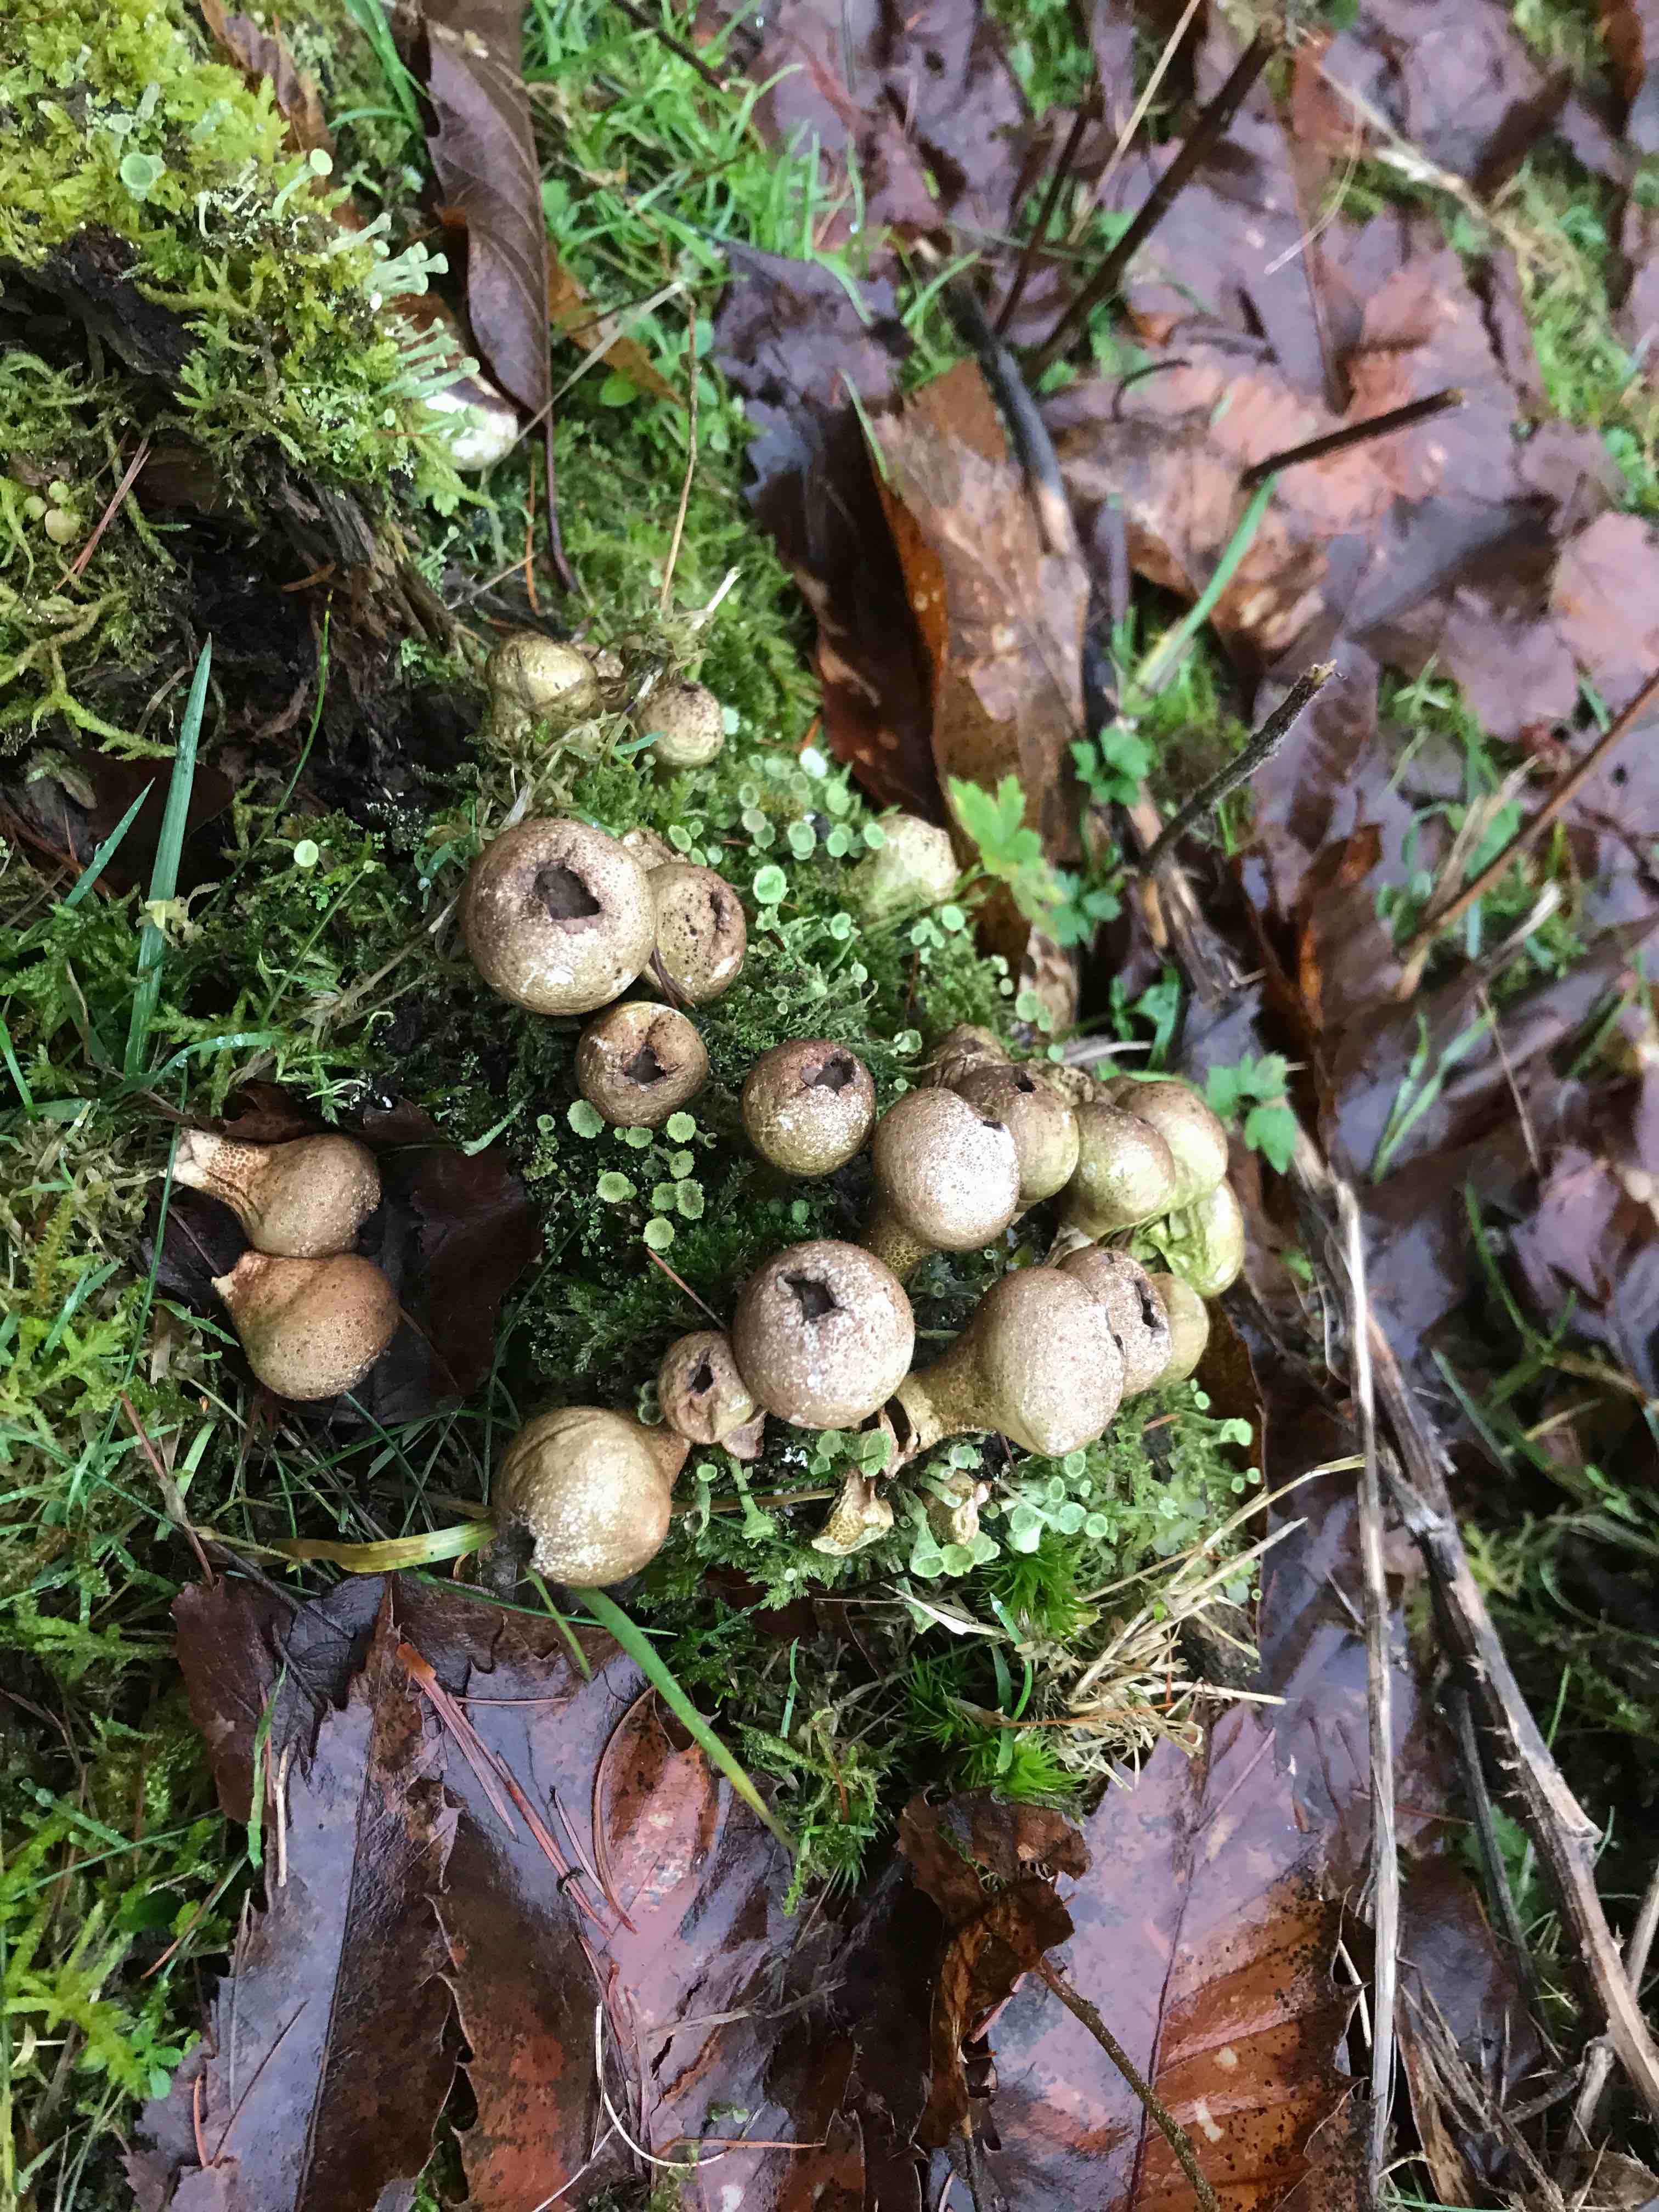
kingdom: Fungi
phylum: Basidiomycota
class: Agaricomycetes
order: Agaricales
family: Lycoperdaceae
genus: Apioperdon
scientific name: Apioperdon pyriforme
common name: pære-støvbold
